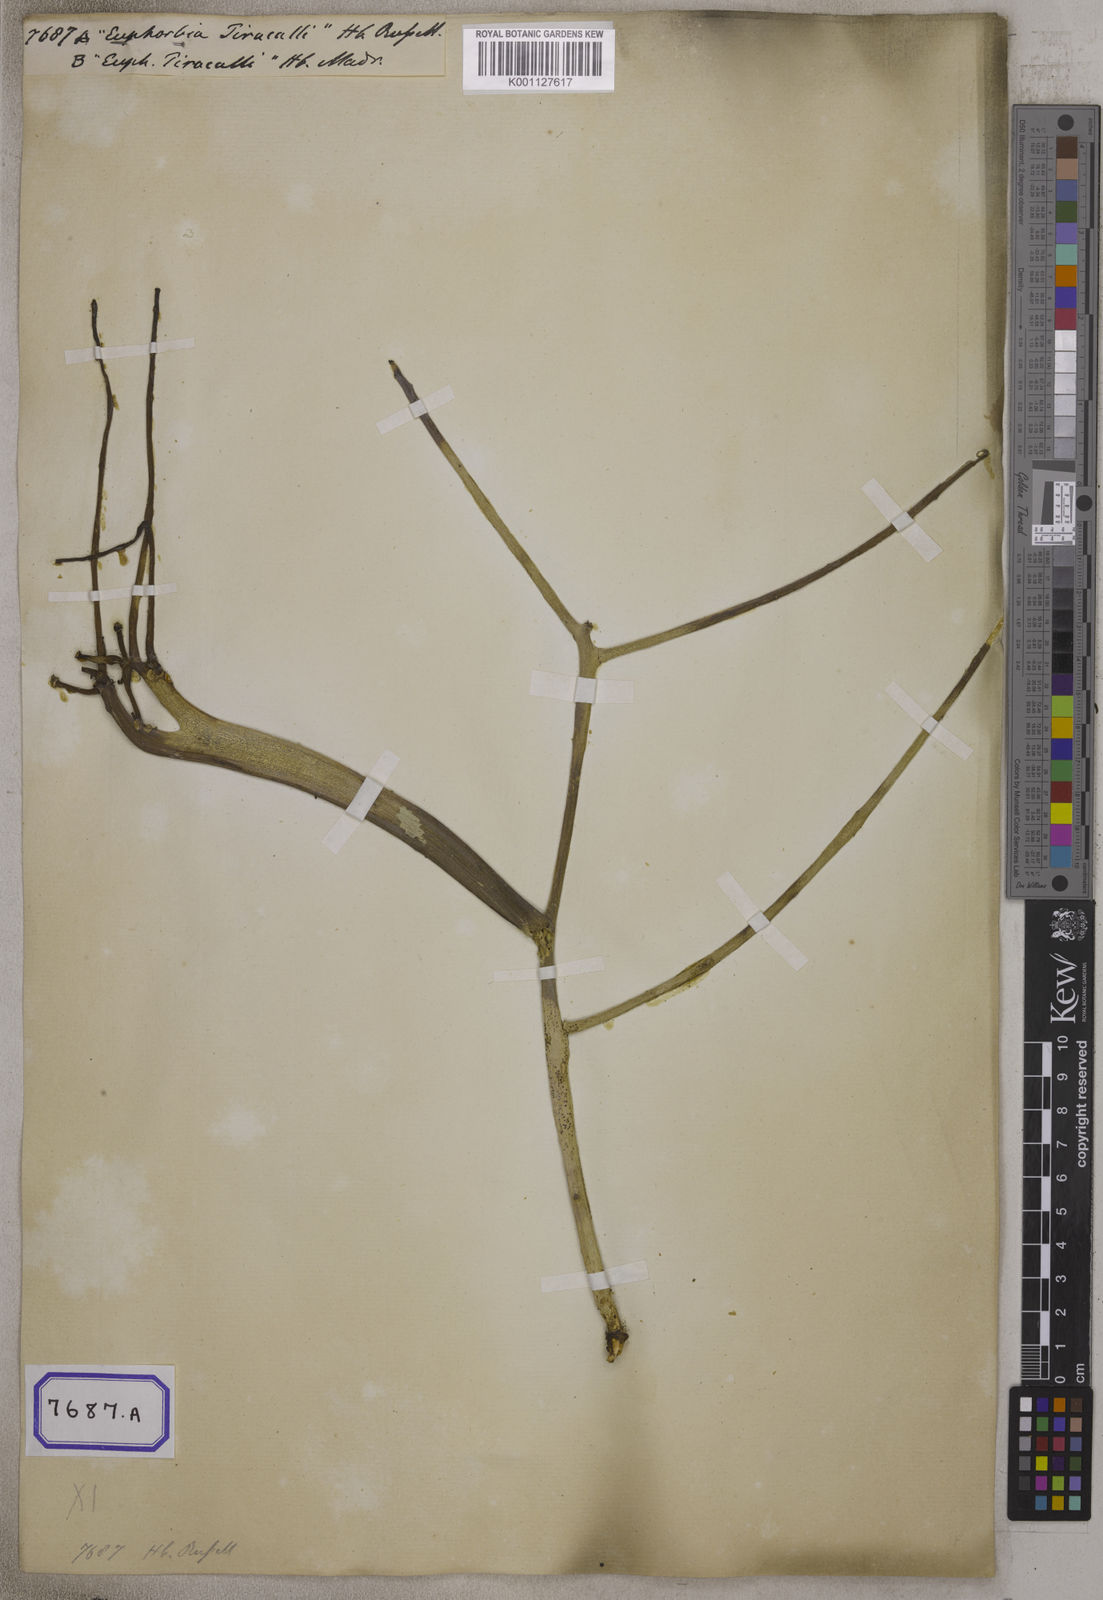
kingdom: Plantae
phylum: Tracheophyta
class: Magnoliopsida
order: Malpighiales
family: Euphorbiaceae
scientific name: Euphorbiaceae
